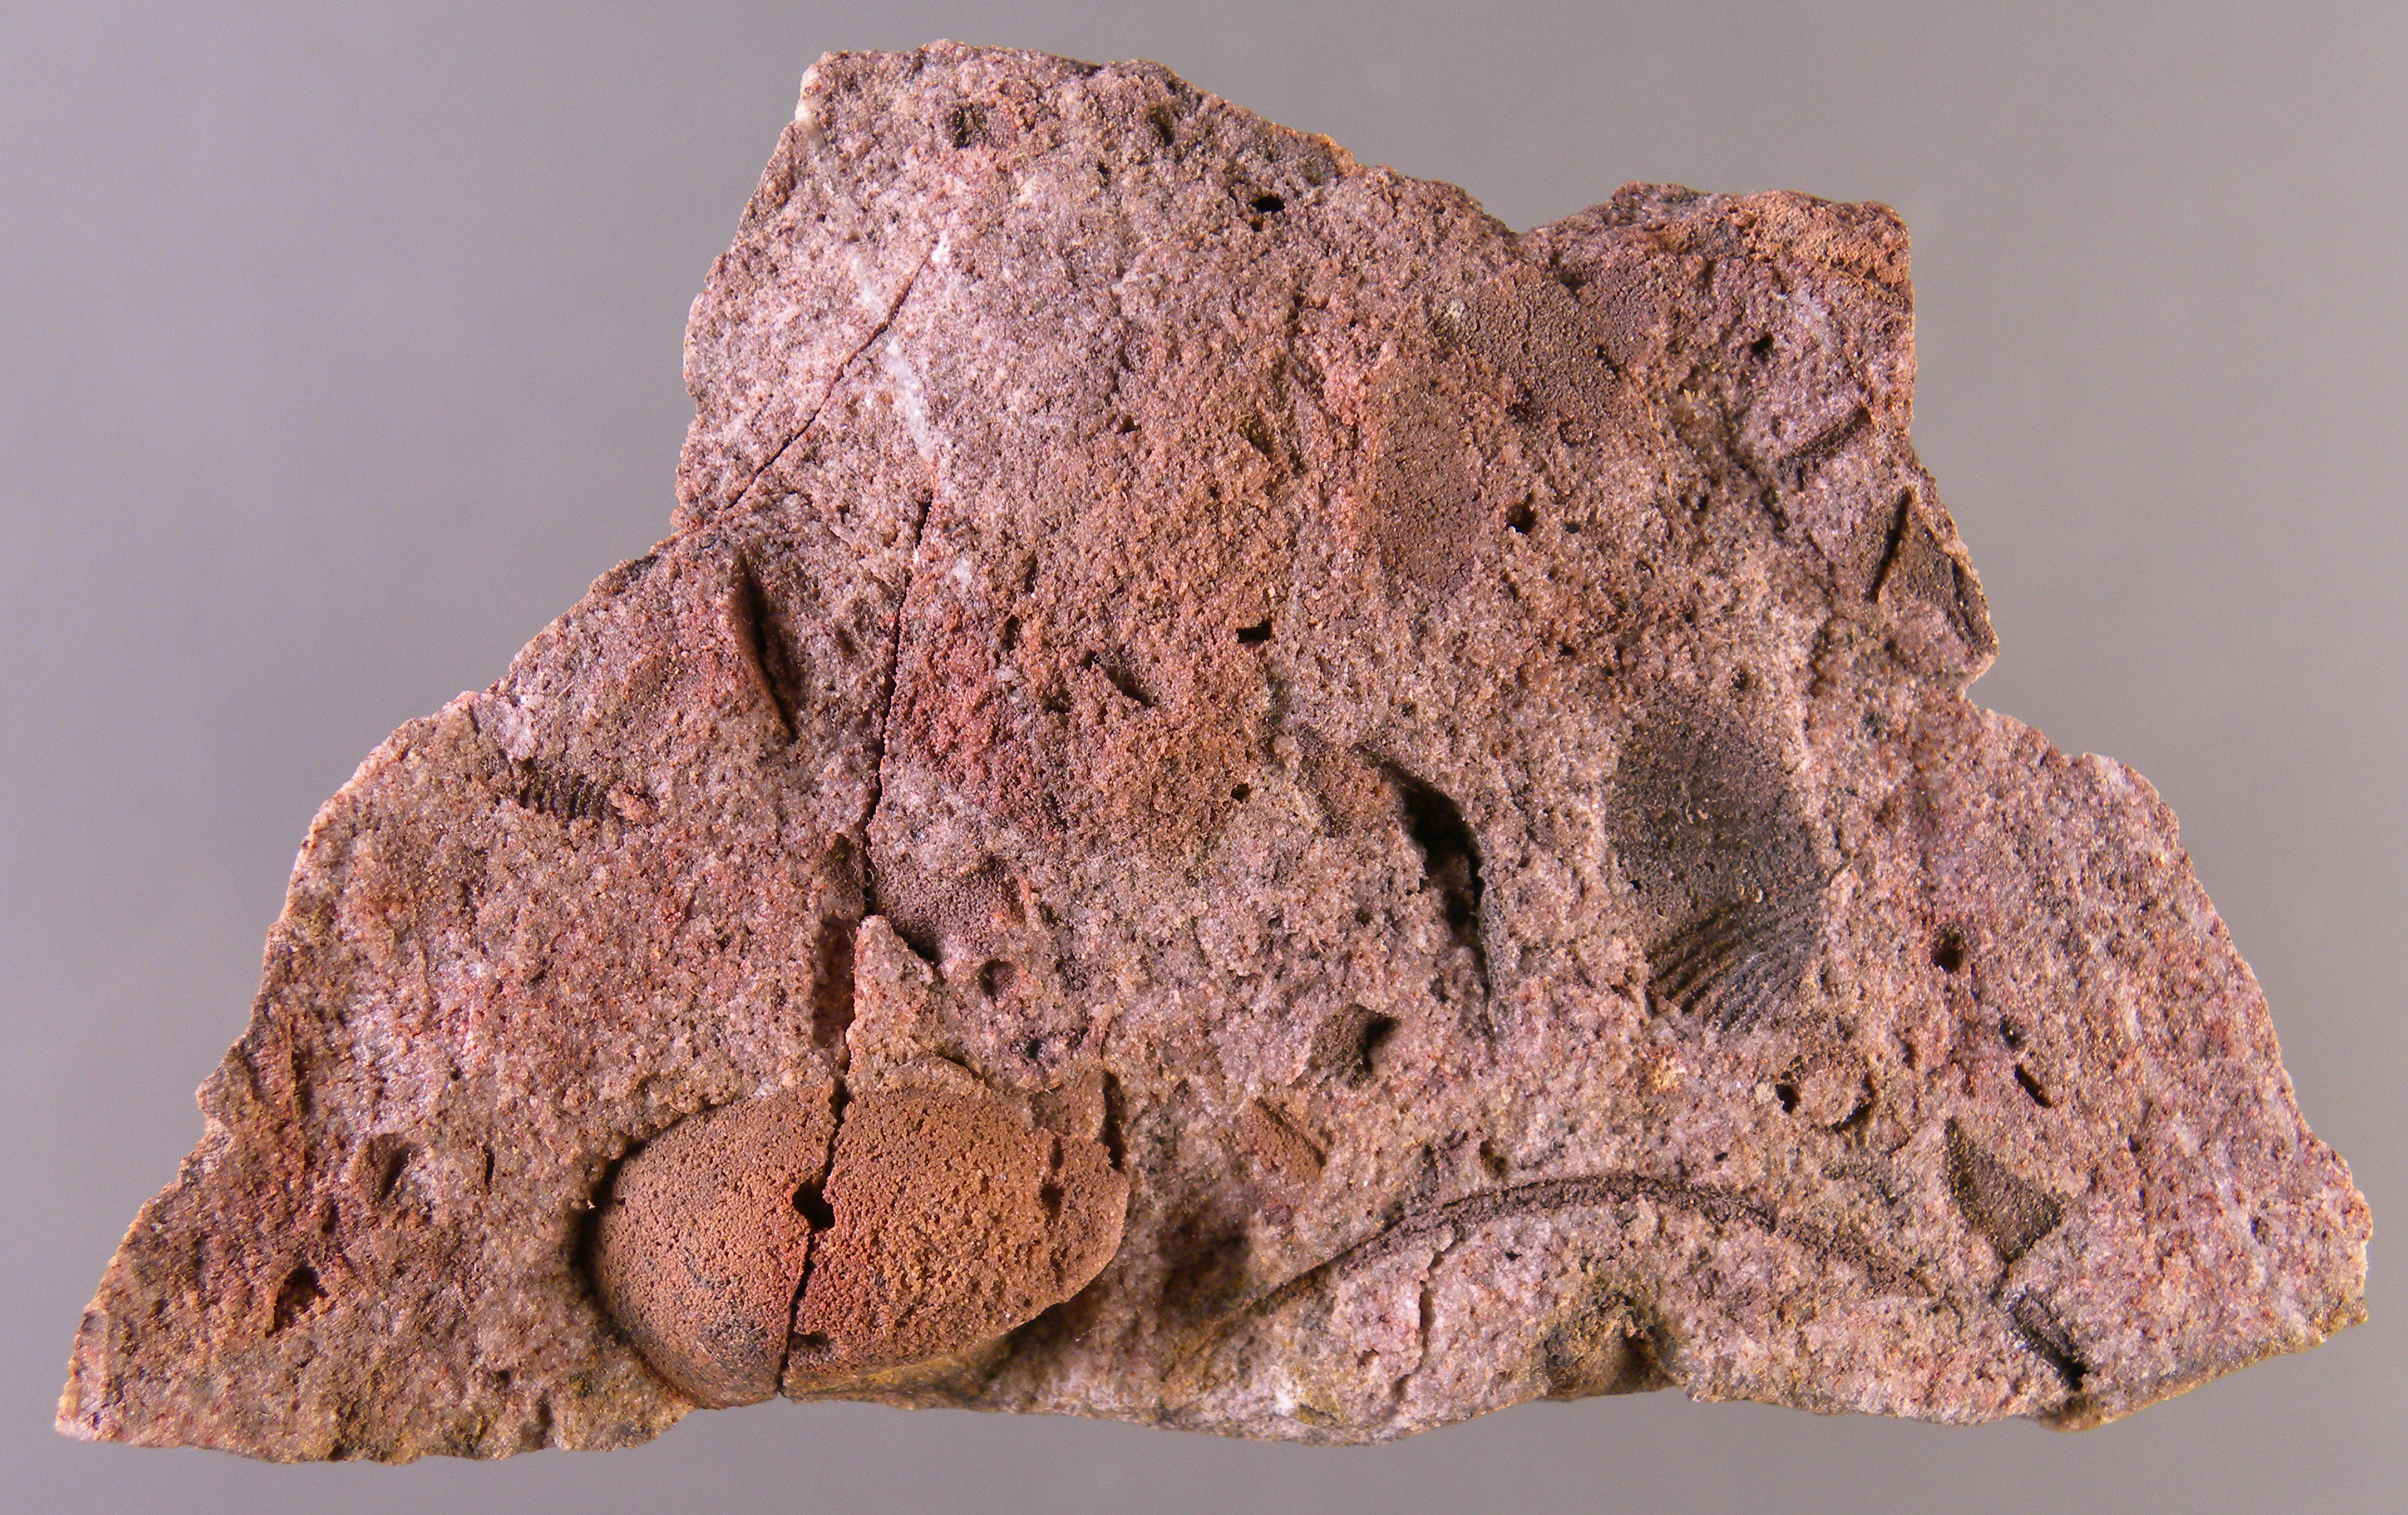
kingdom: Animalia
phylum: Mollusca
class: Bivalvia
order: Ostreida
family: Pterineidae
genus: Leptodesma
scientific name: Leptodesma
